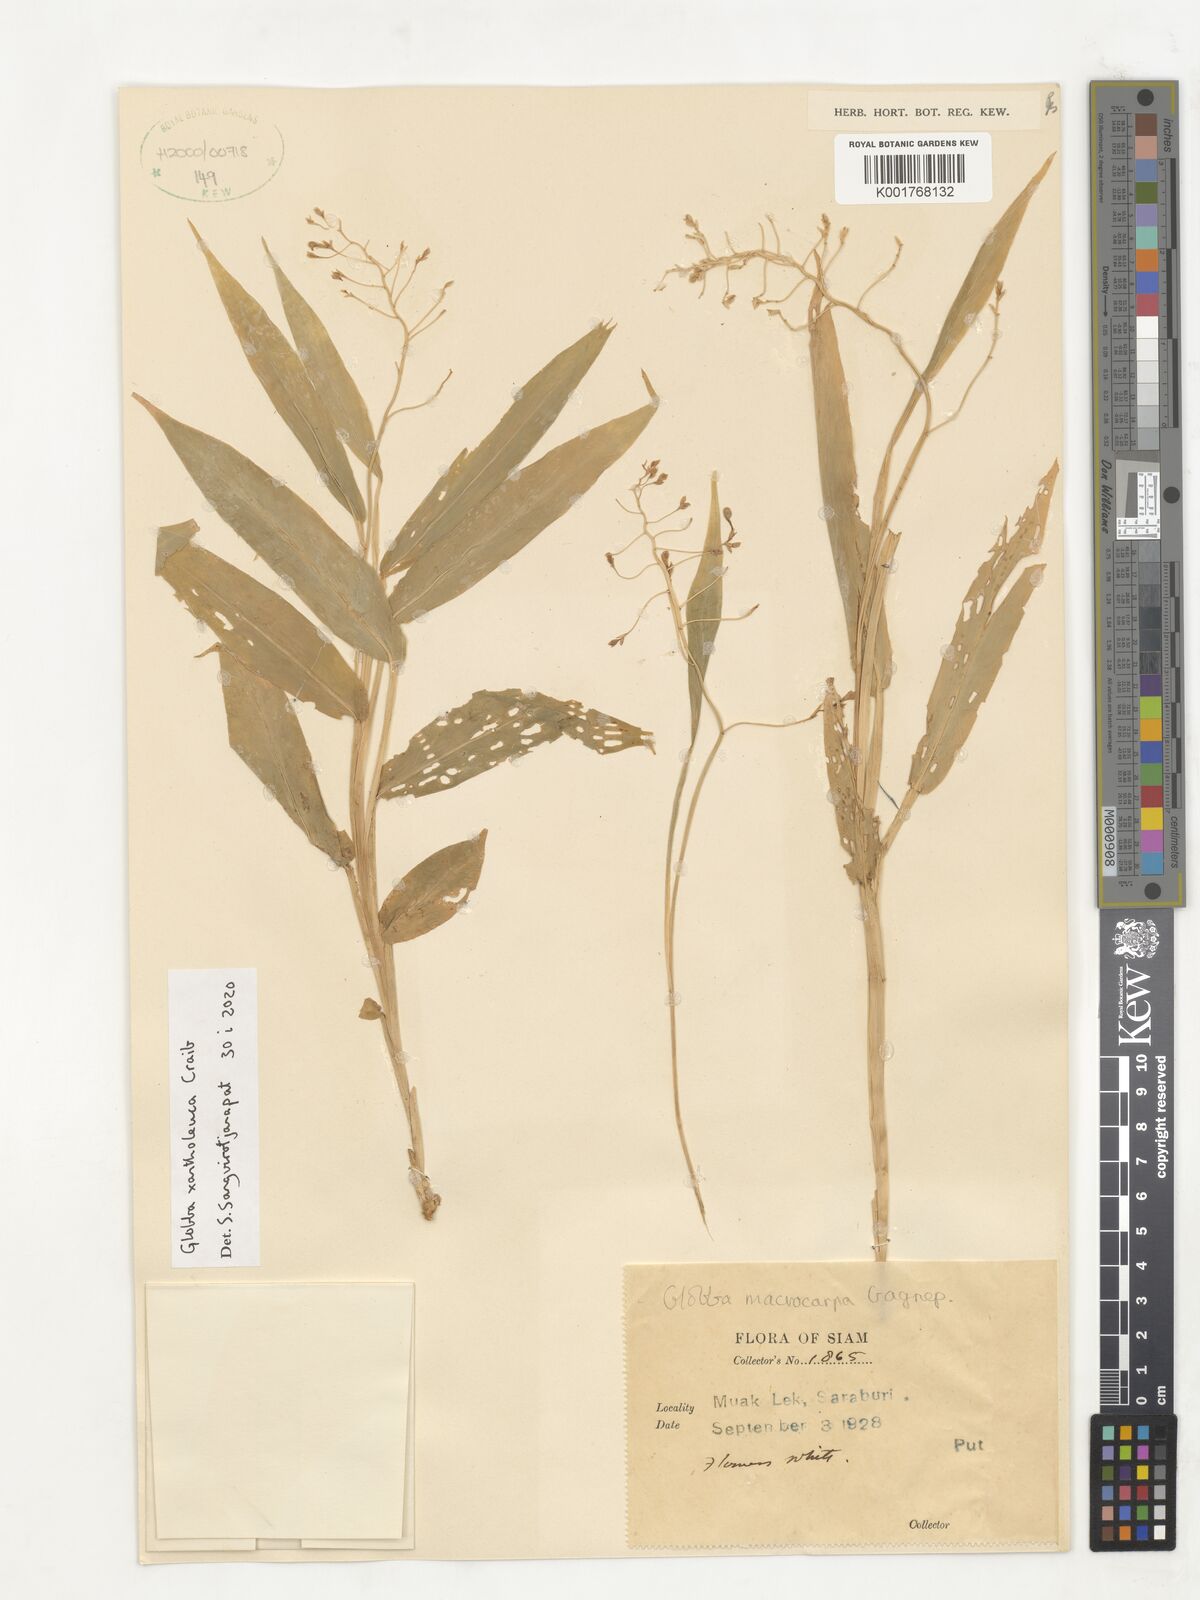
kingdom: Plantae
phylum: Tracheophyta
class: Liliopsida
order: Zingiberales
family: Zingiberaceae
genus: Globba
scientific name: Globba xantholeuca
